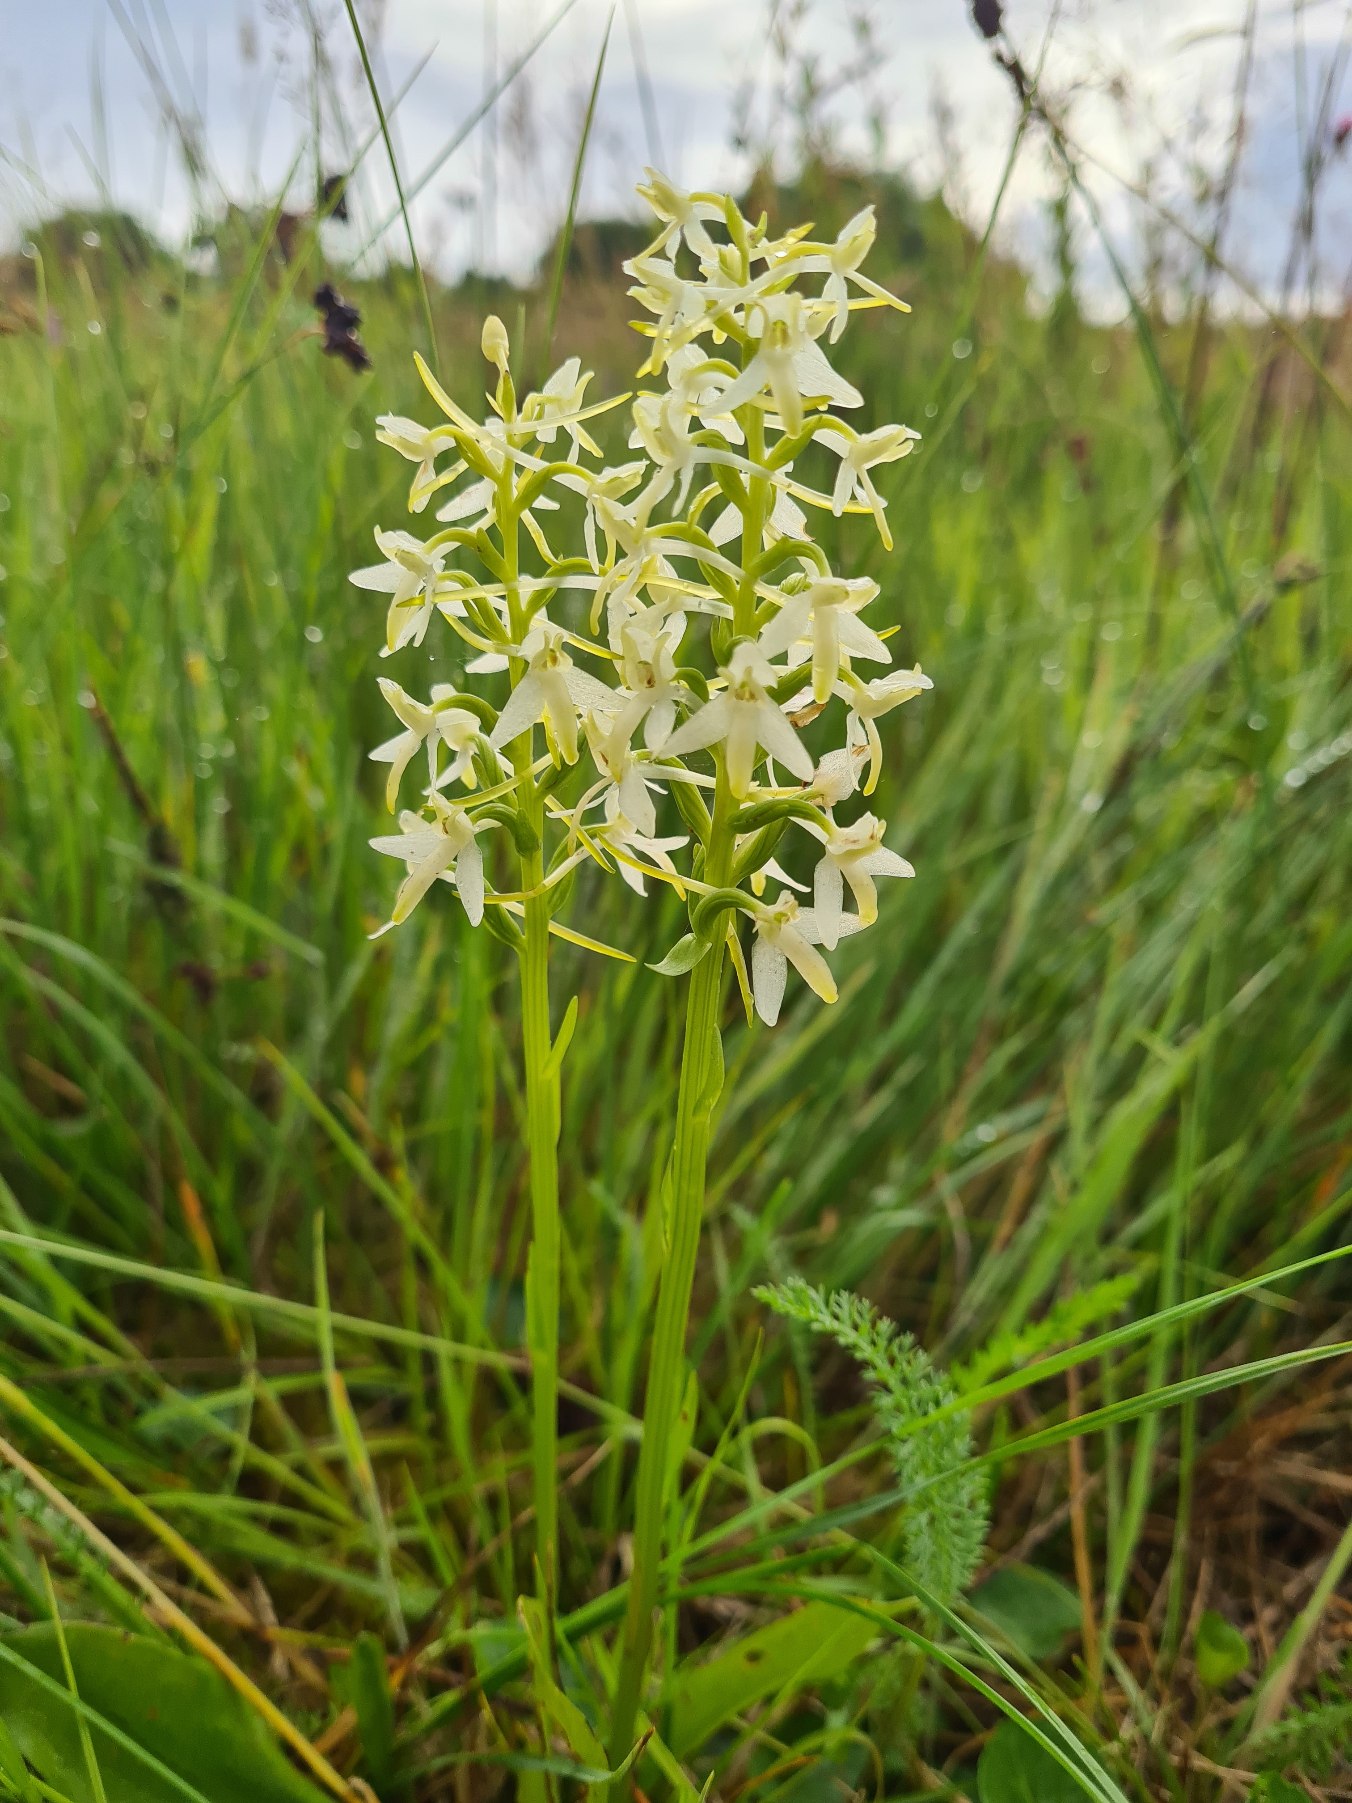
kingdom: Plantae
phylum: Tracheophyta
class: Liliopsida
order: Asparagales
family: Orchidaceae
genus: Platanthera
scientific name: Platanthera bifolia
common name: Bakke-gøgelilje
